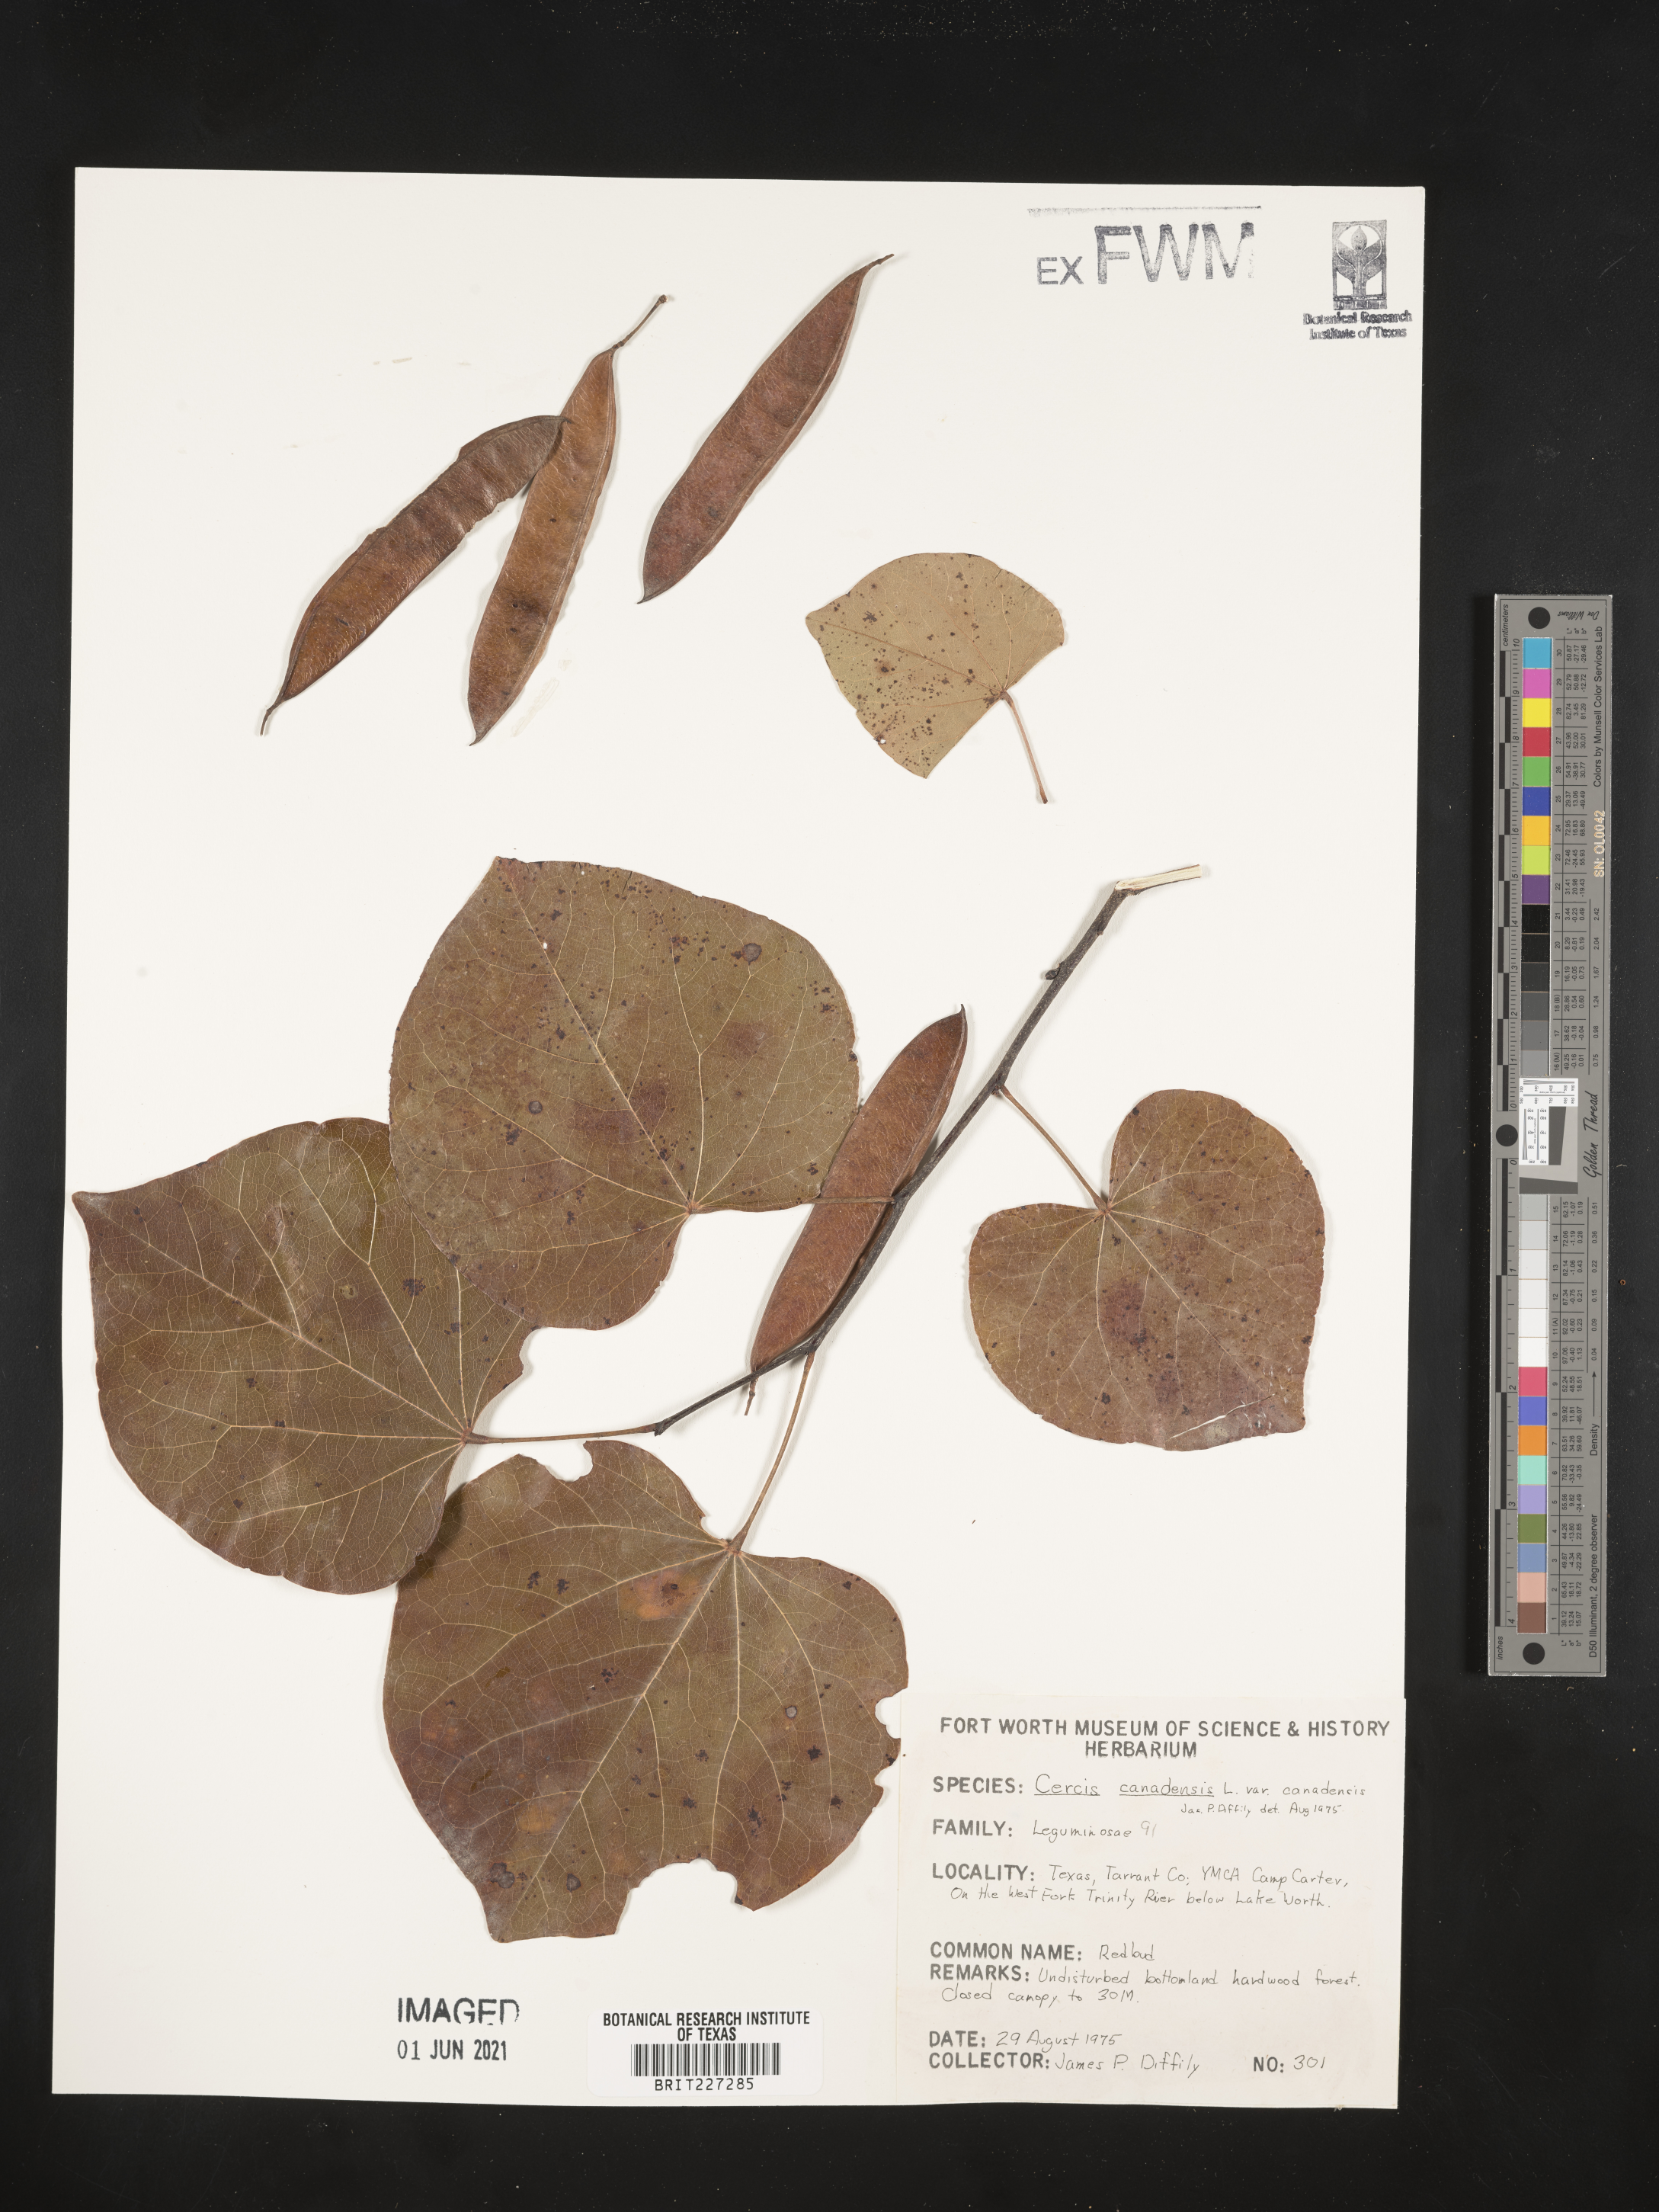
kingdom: Plantae
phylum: Tracheophyta
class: Magnoliopsida
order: Fabales
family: Fabaceae
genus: Cercis
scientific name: Cercis canadensis
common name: Eastern redbud
